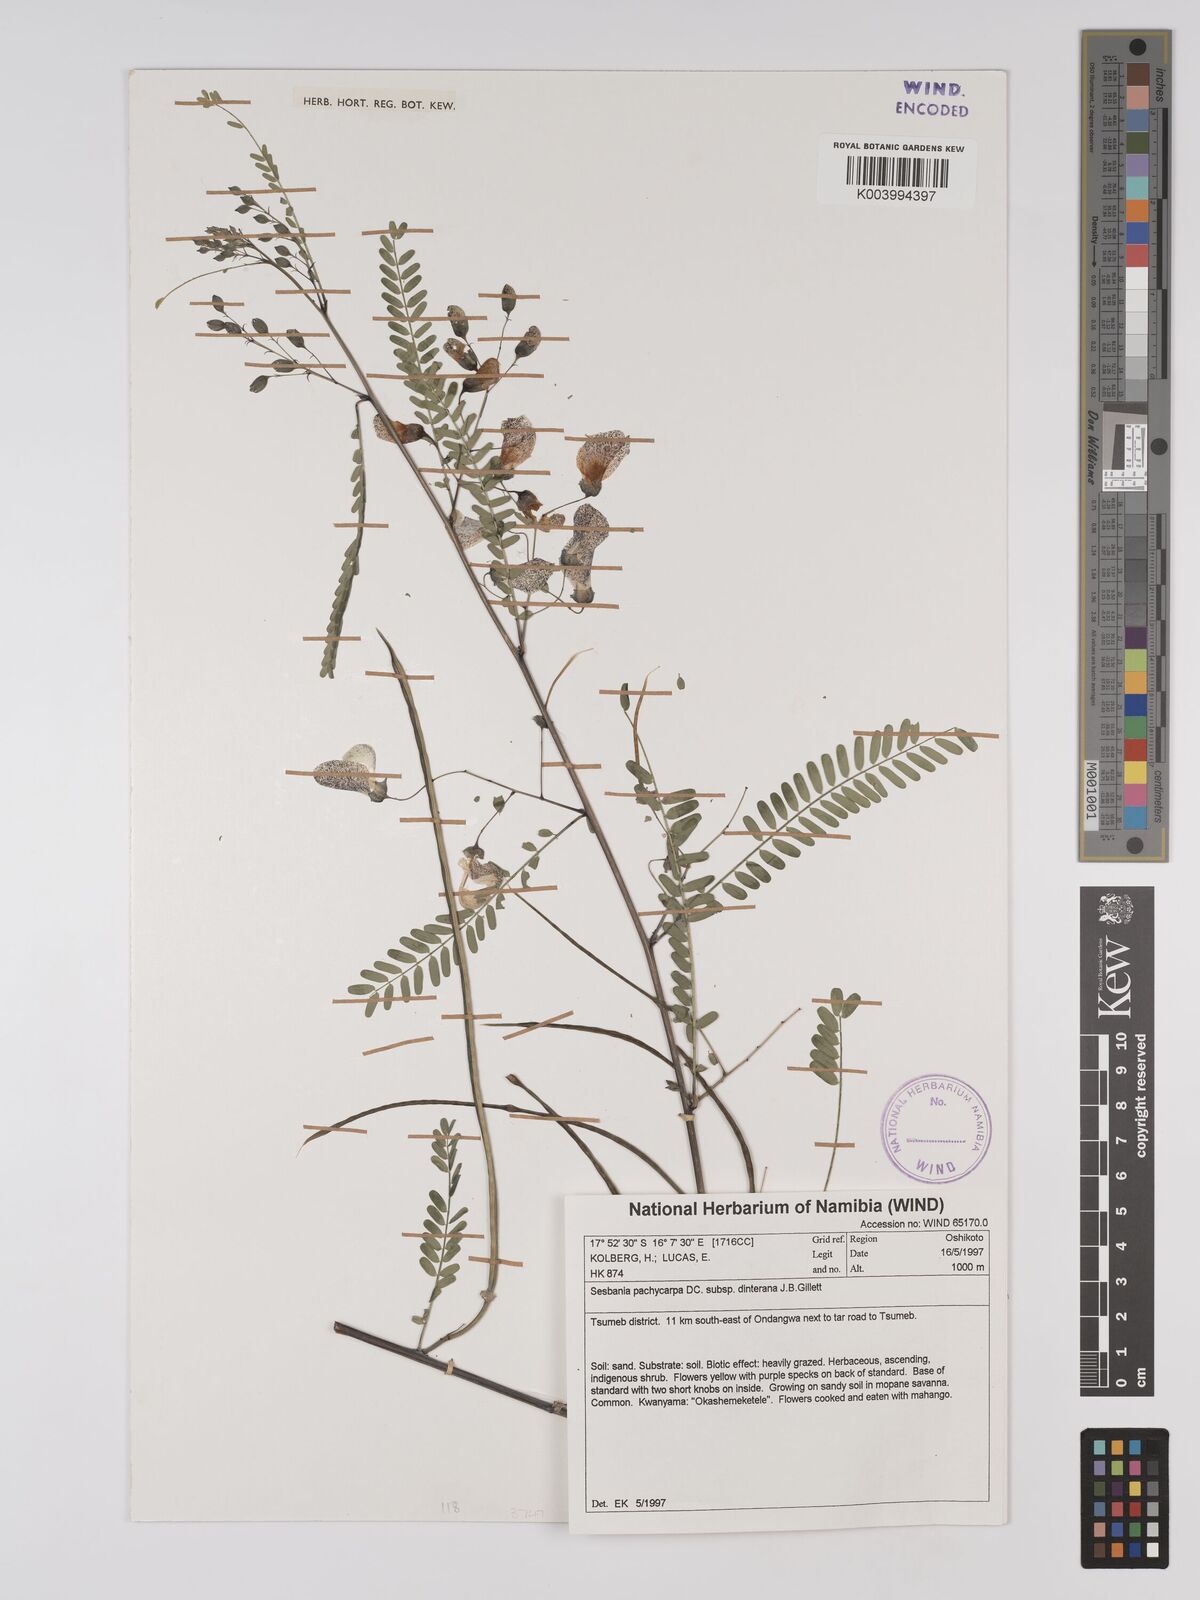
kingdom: Plantae
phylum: Tracheophyta
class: Magnoliopsida
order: Fabales
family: Fabaceae
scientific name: Fabaceae
